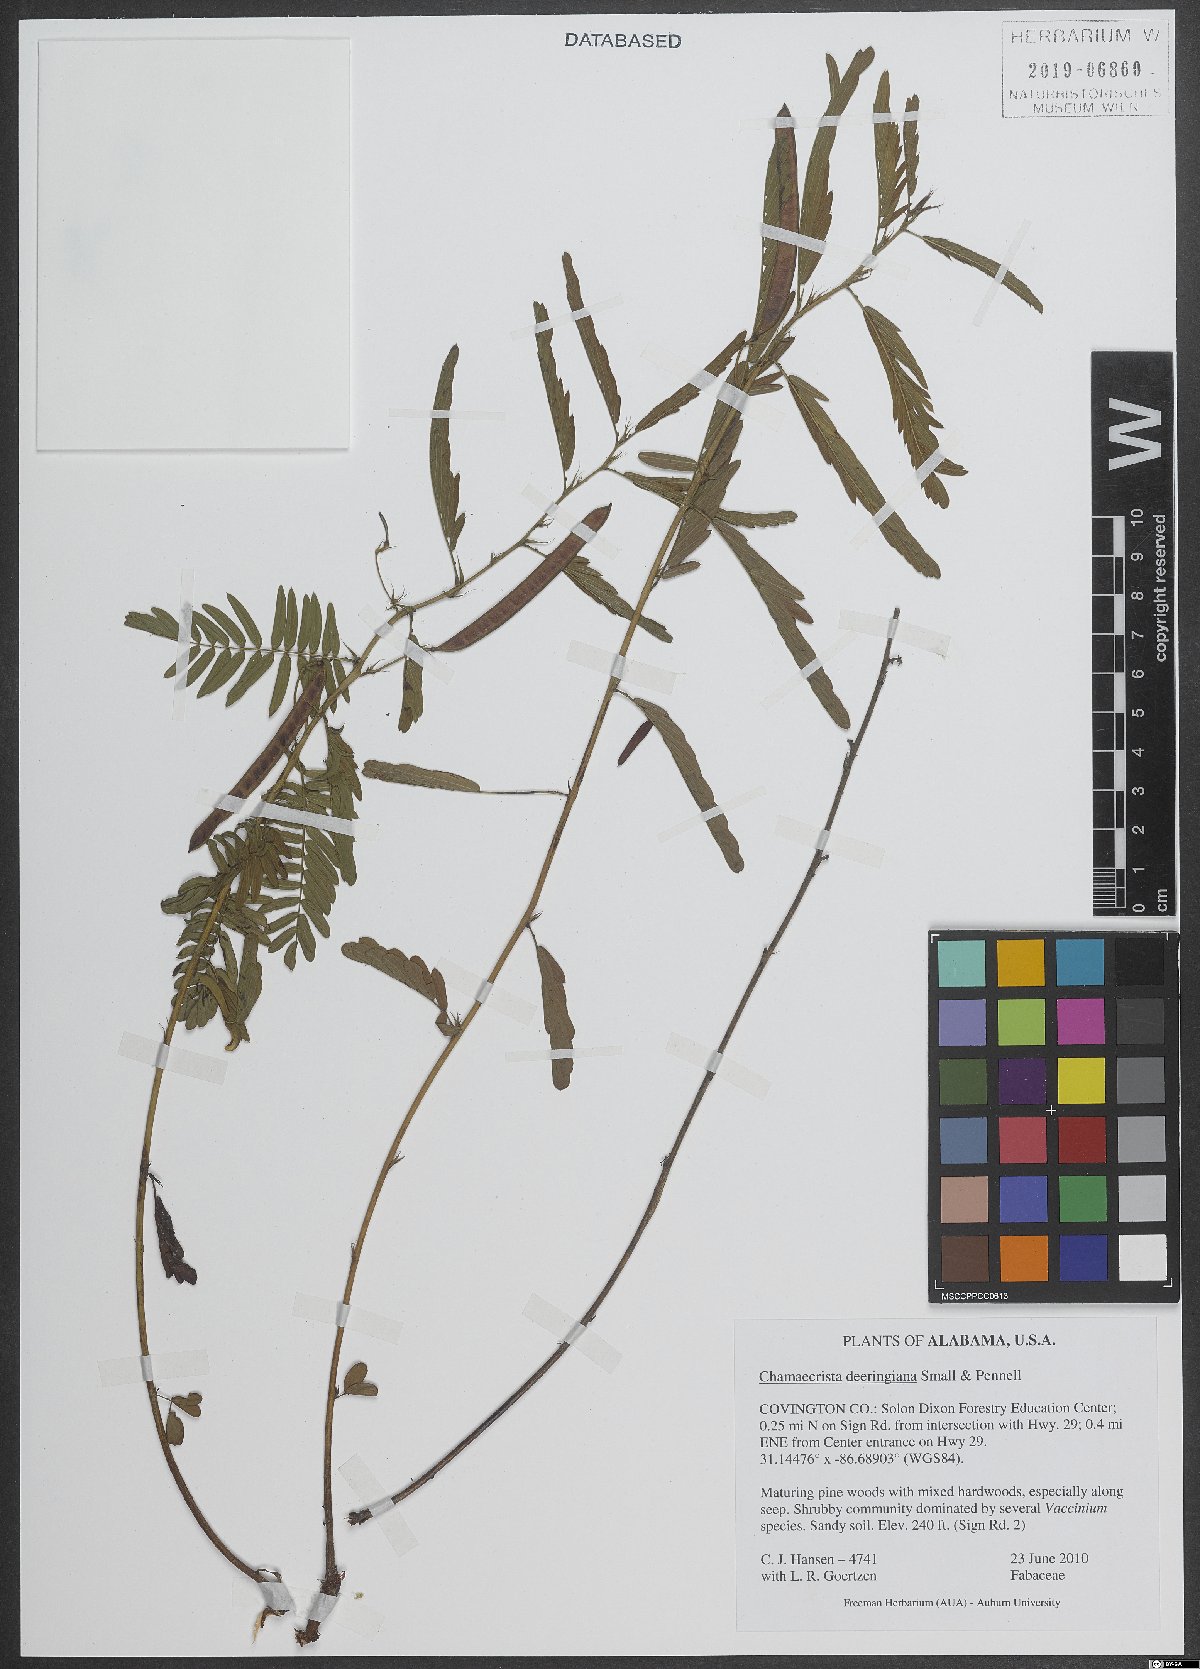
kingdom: Plantae
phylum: Tracheophyta
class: Magnoliopsida
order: Fabales
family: Fabaceae
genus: Chamaecrista
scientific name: Chamaecrista deeringiana
